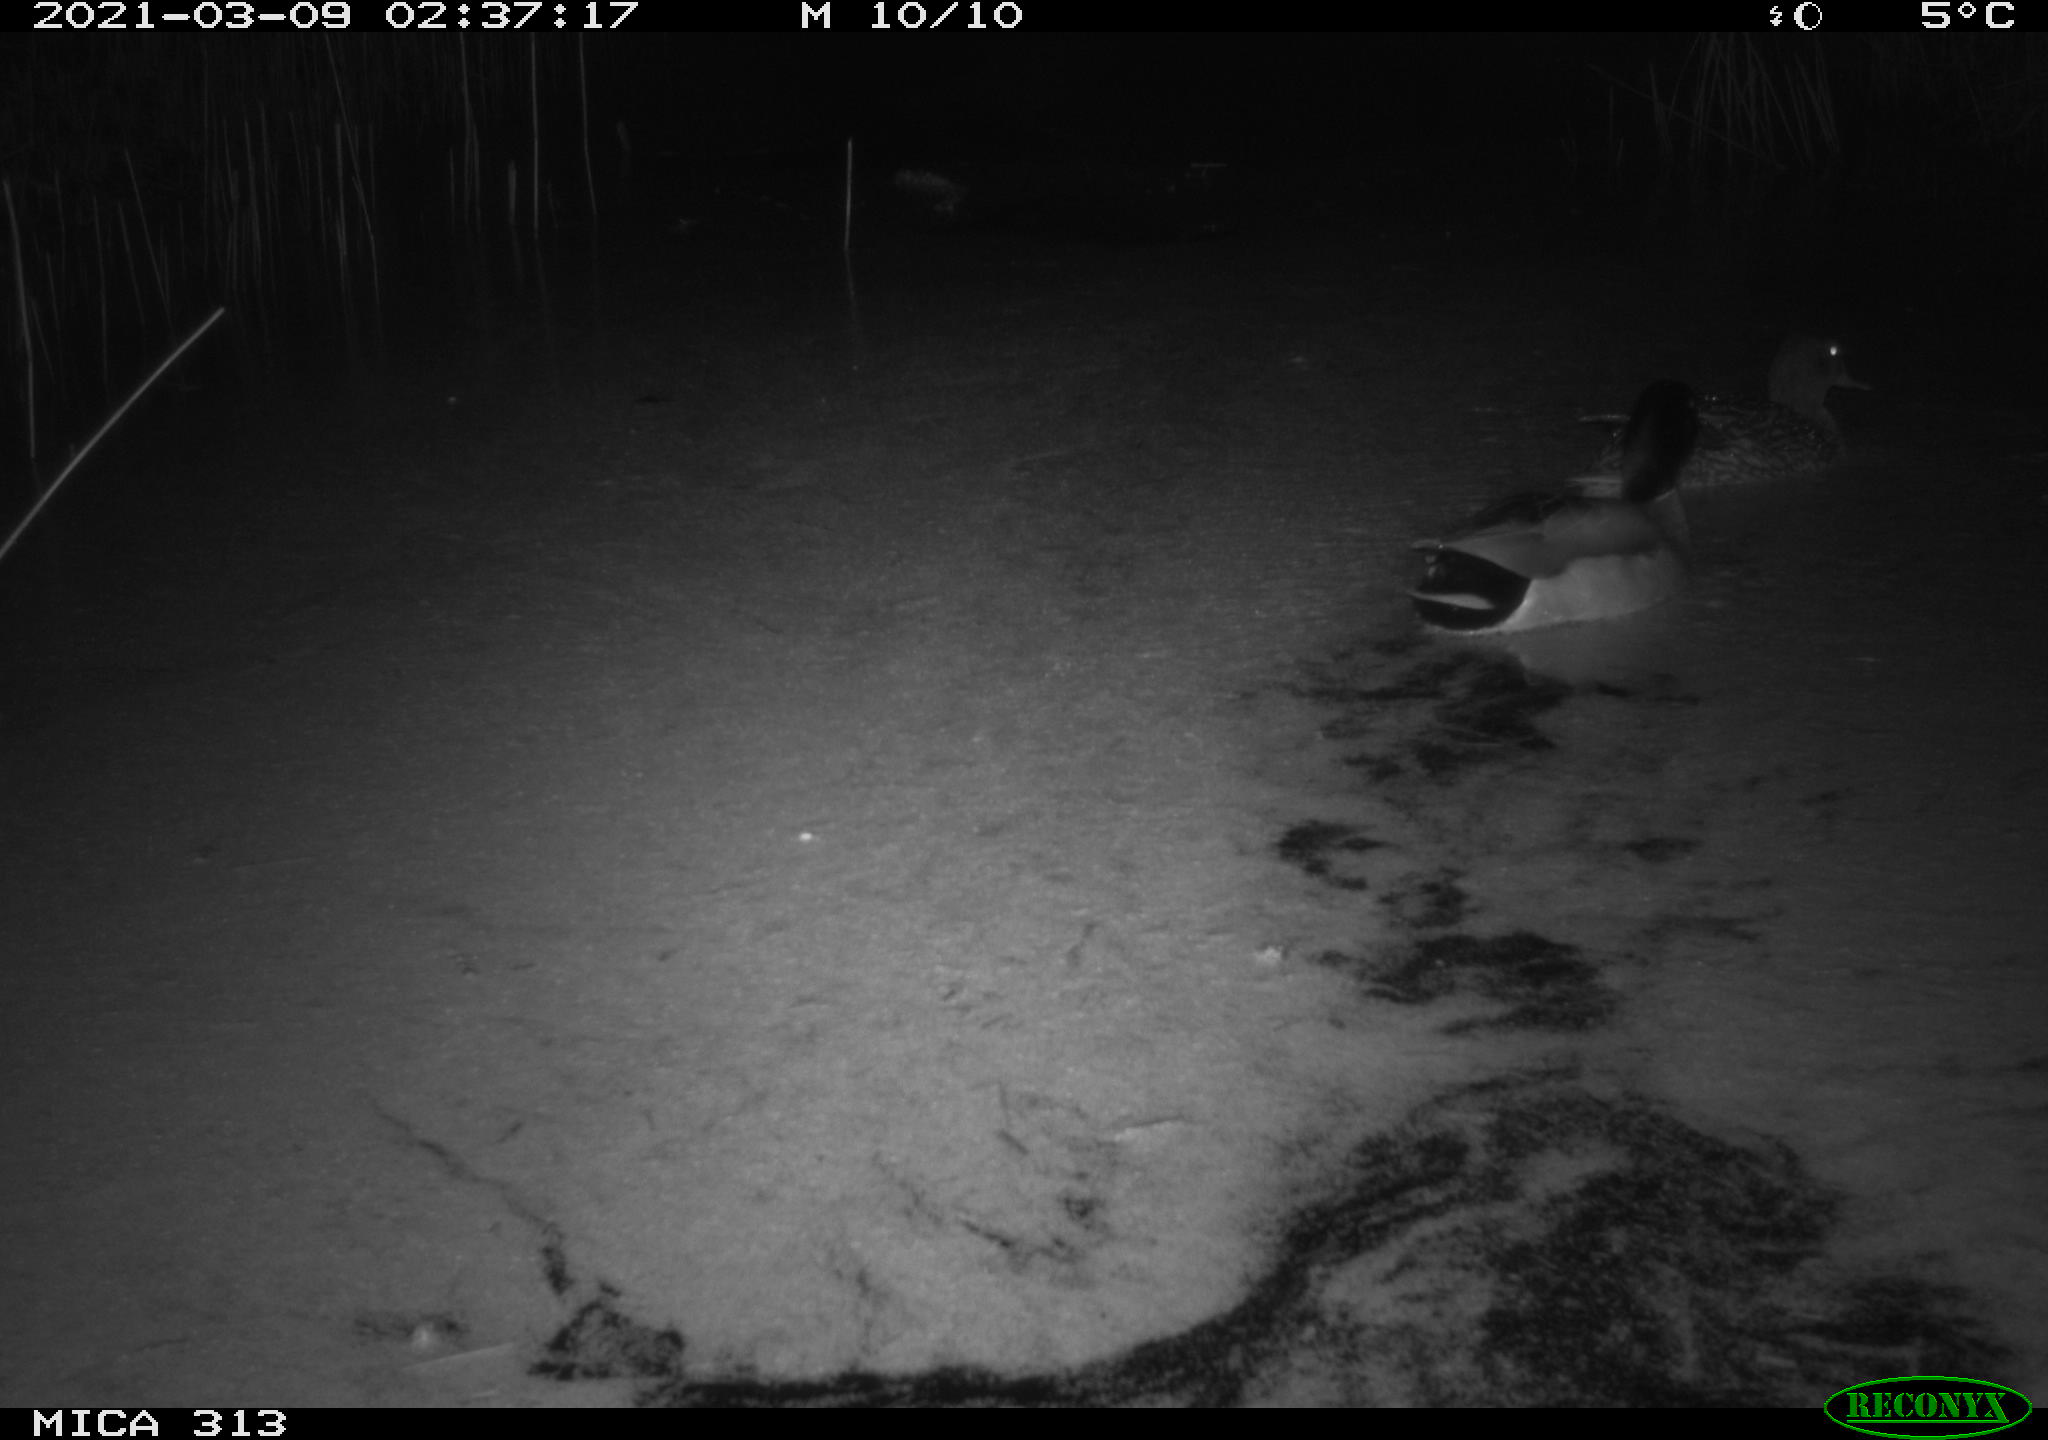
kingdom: Animalia
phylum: Chordata
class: Aves
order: Anseriformes
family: Anatidae
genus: Anas
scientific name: Anas platyrhynchos
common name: Mallard
